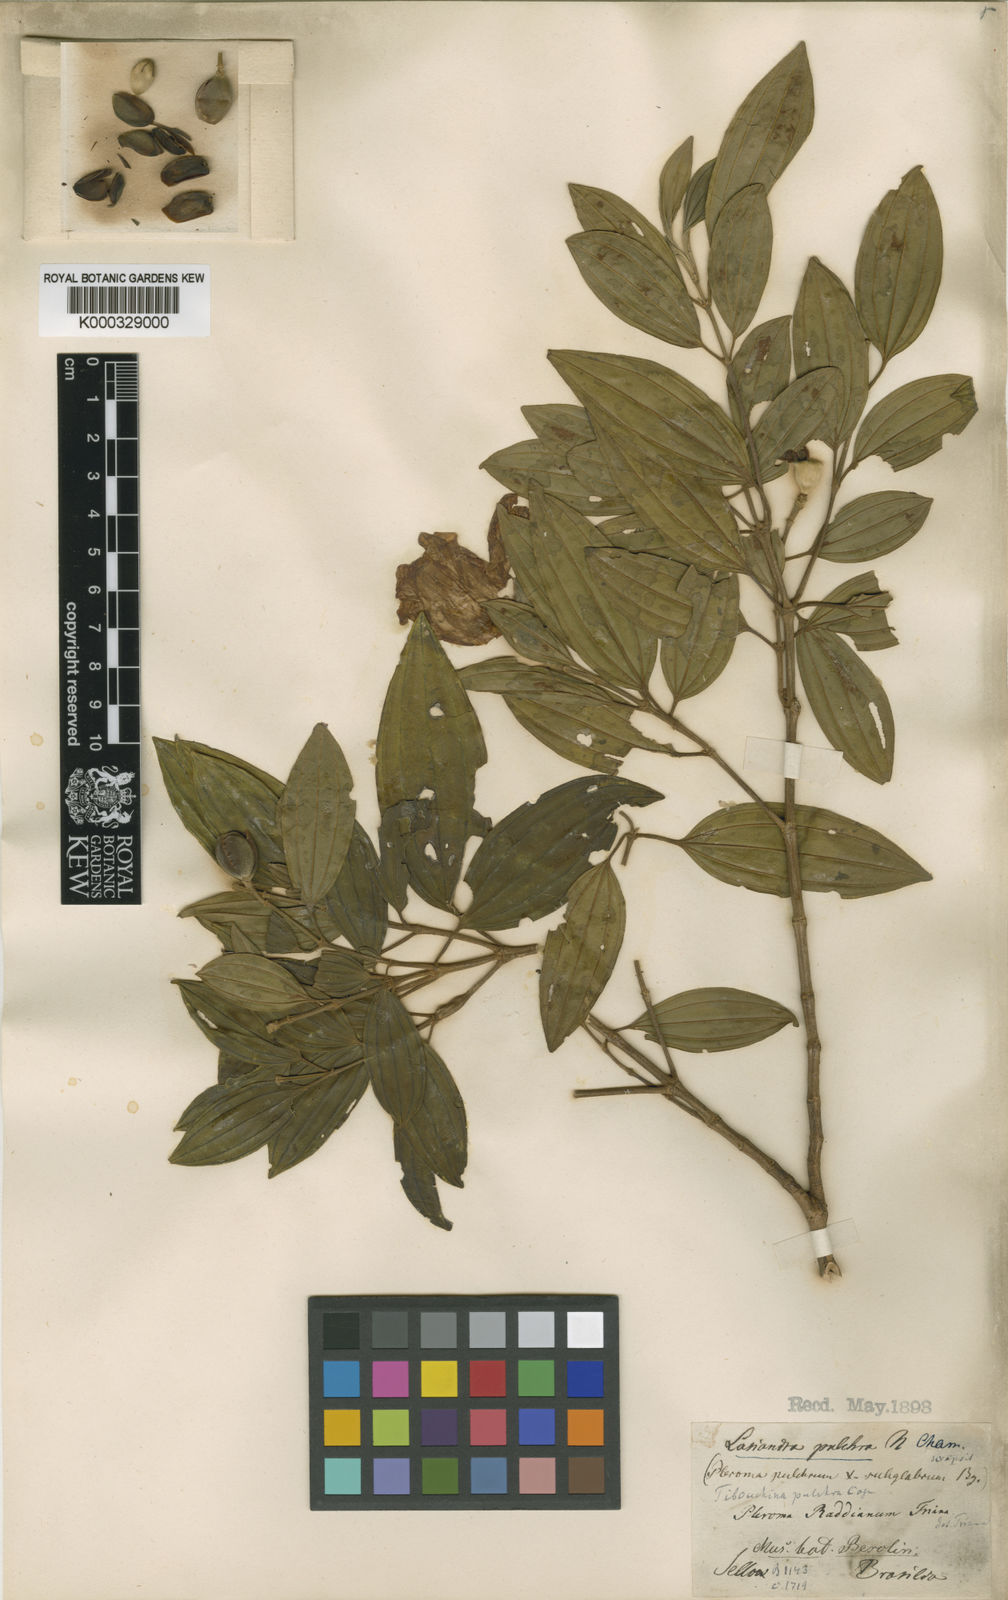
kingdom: Plantae
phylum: Tracheophyta
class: Magnoliopsida
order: Myrtales
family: Melastomataceae
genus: Pleroma
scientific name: Pleroma raddianum
